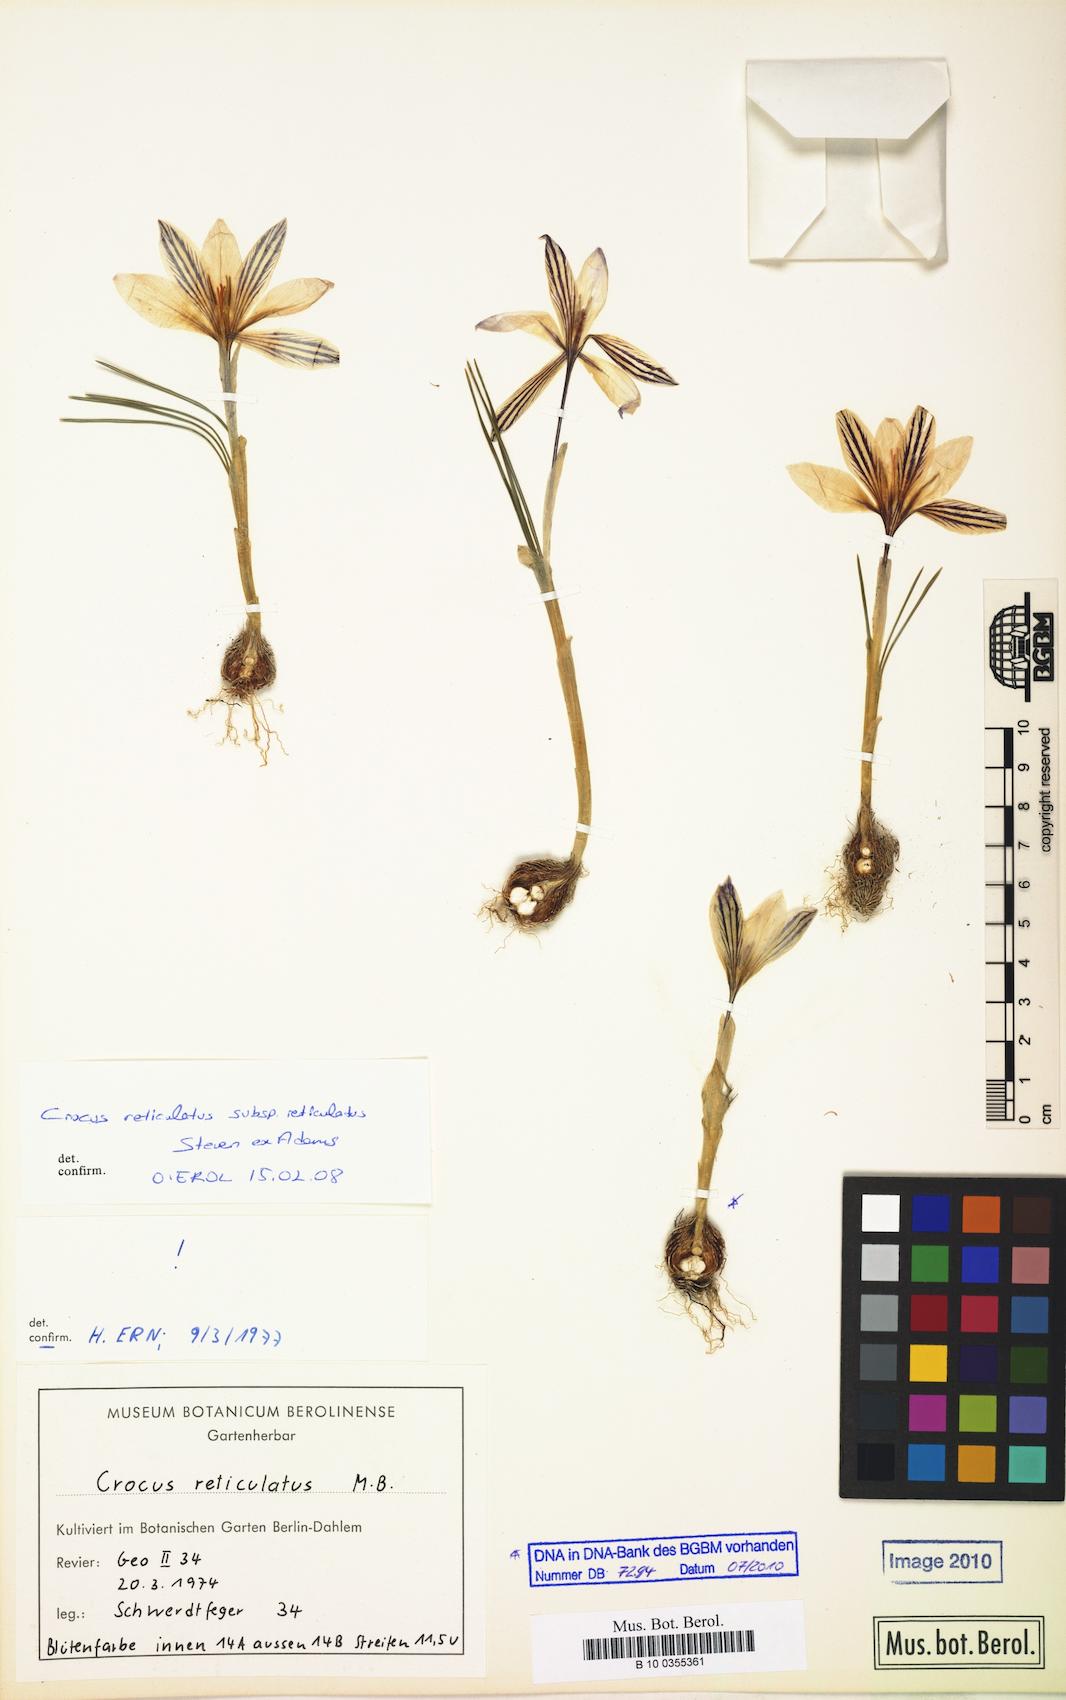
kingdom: Plantae
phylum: Tracheophyta
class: Liliopsida
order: Asparagales
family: Iridaceae
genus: Crocus
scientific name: Crocus reticulatus
